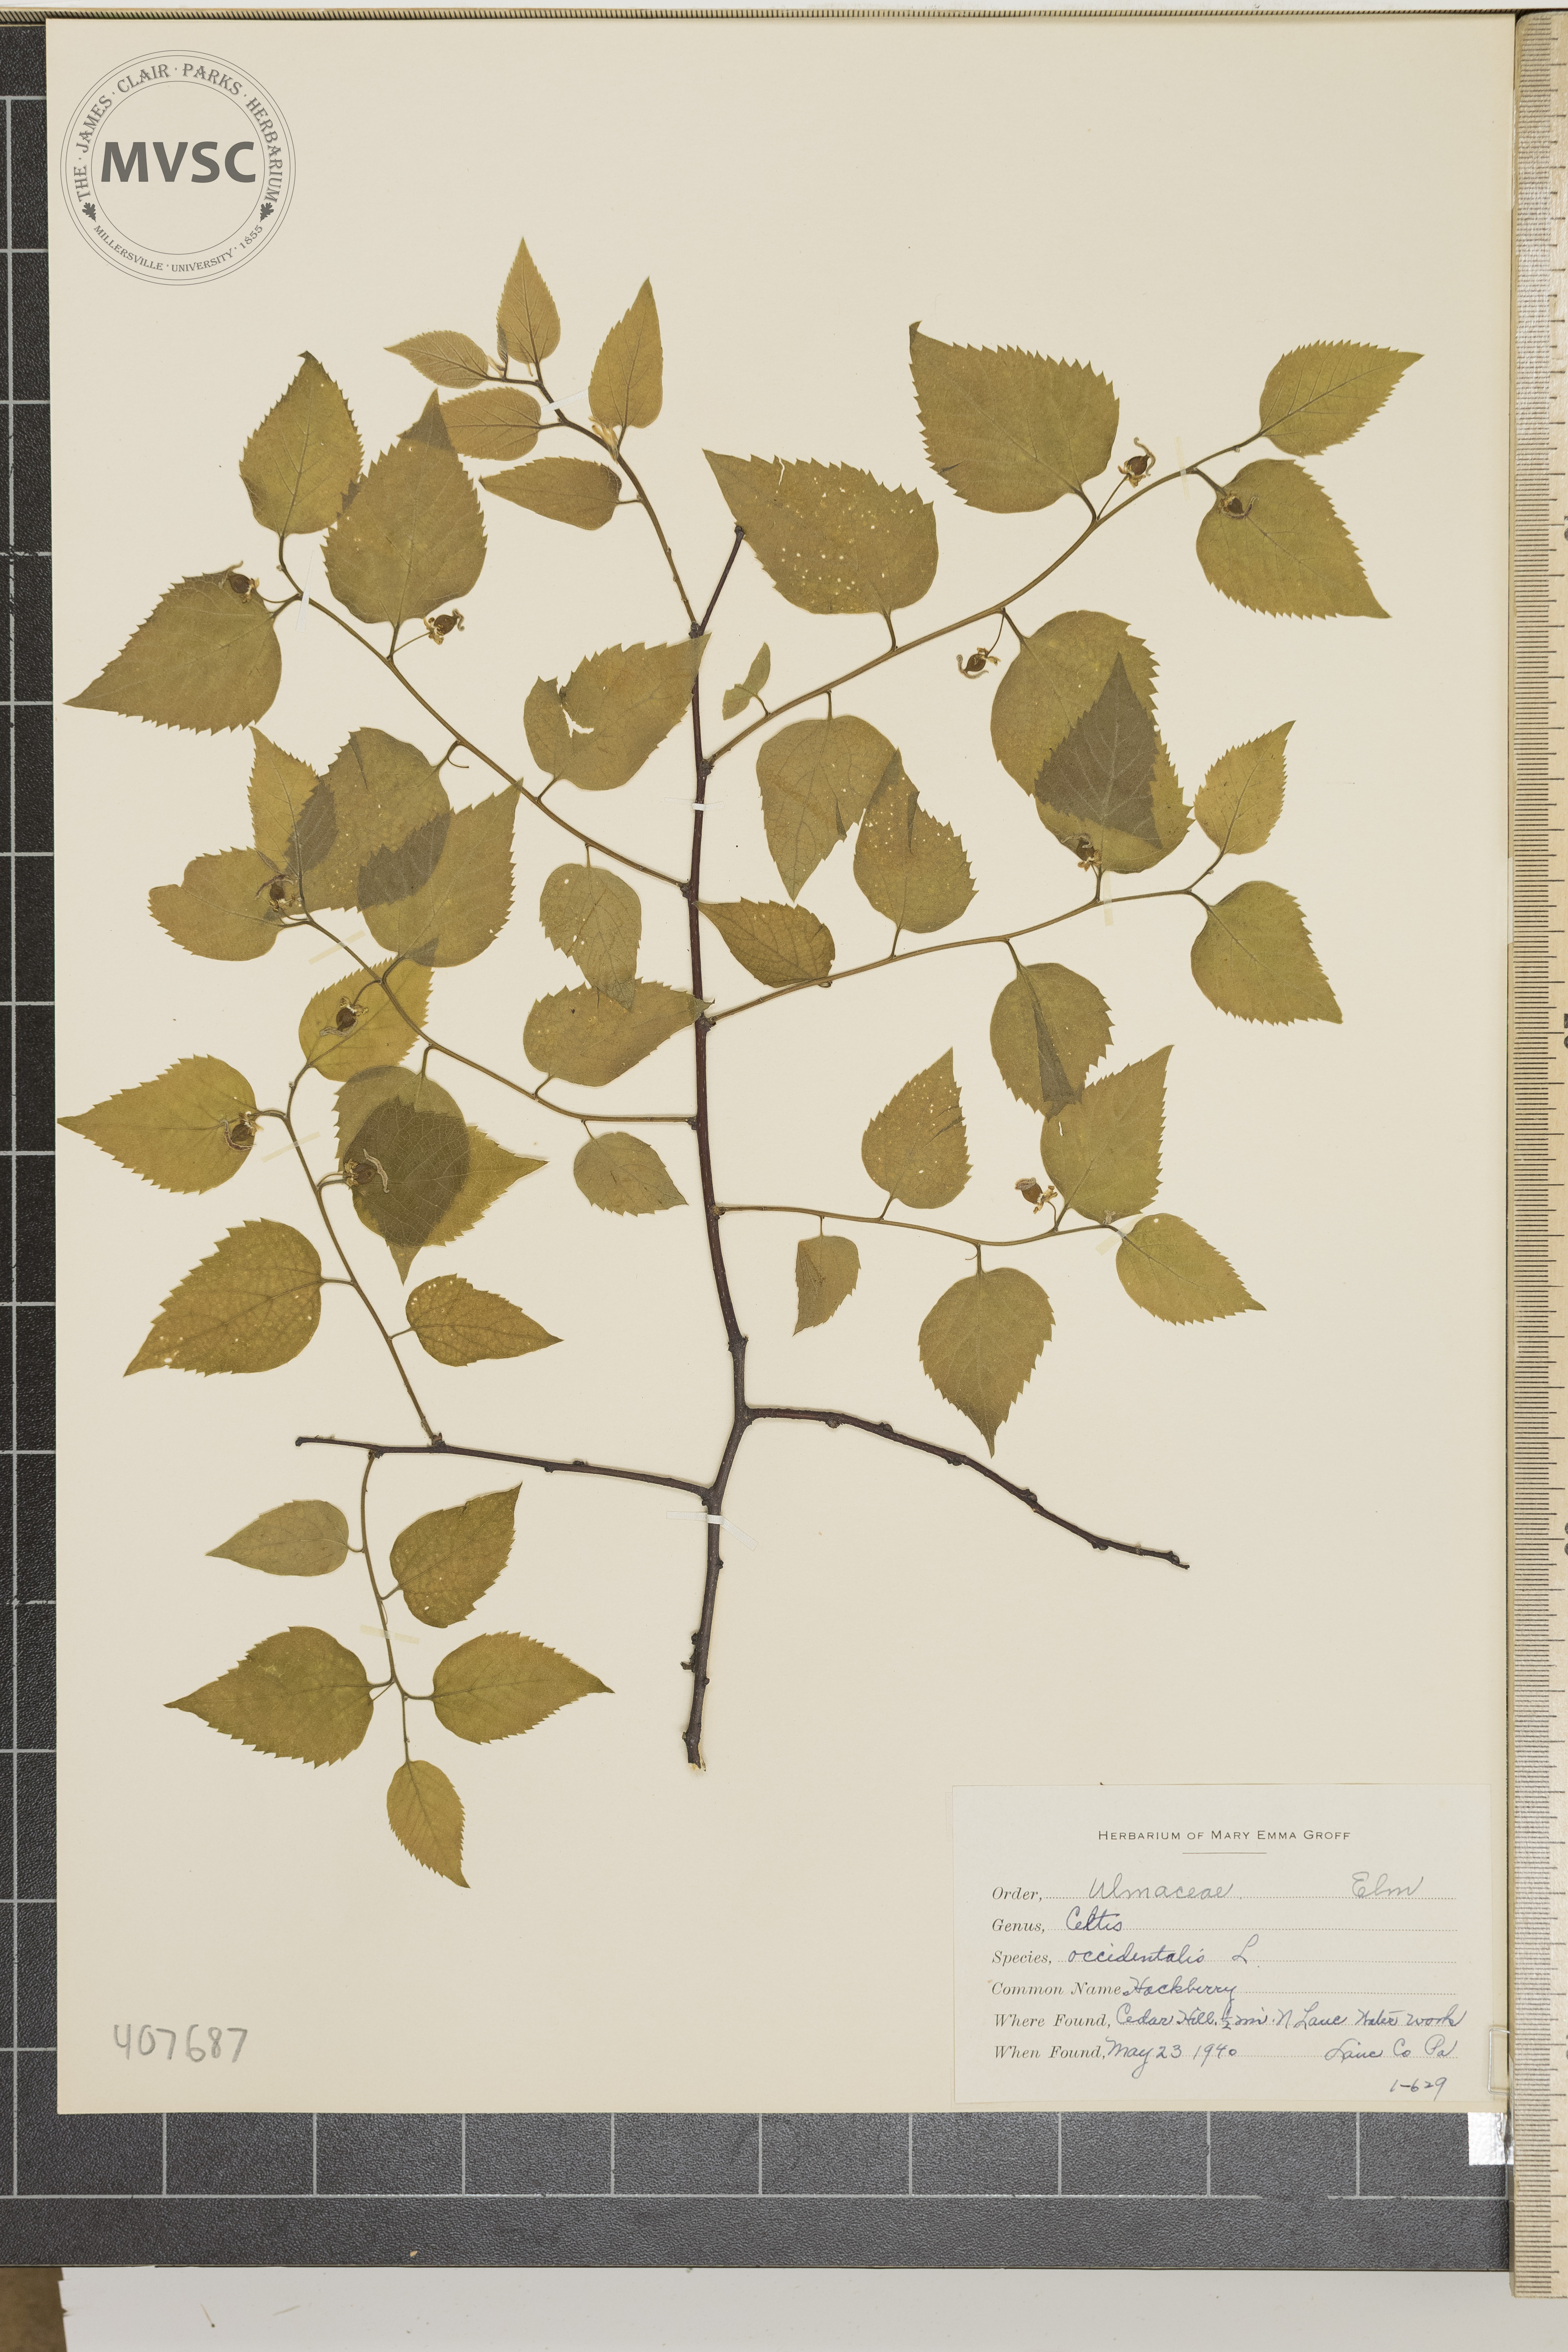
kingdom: Plantae
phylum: Tracheophyta
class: Magnoliopsida
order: Rosales
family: Cannabaceae
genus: Celtis
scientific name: Celtis occidentalis
